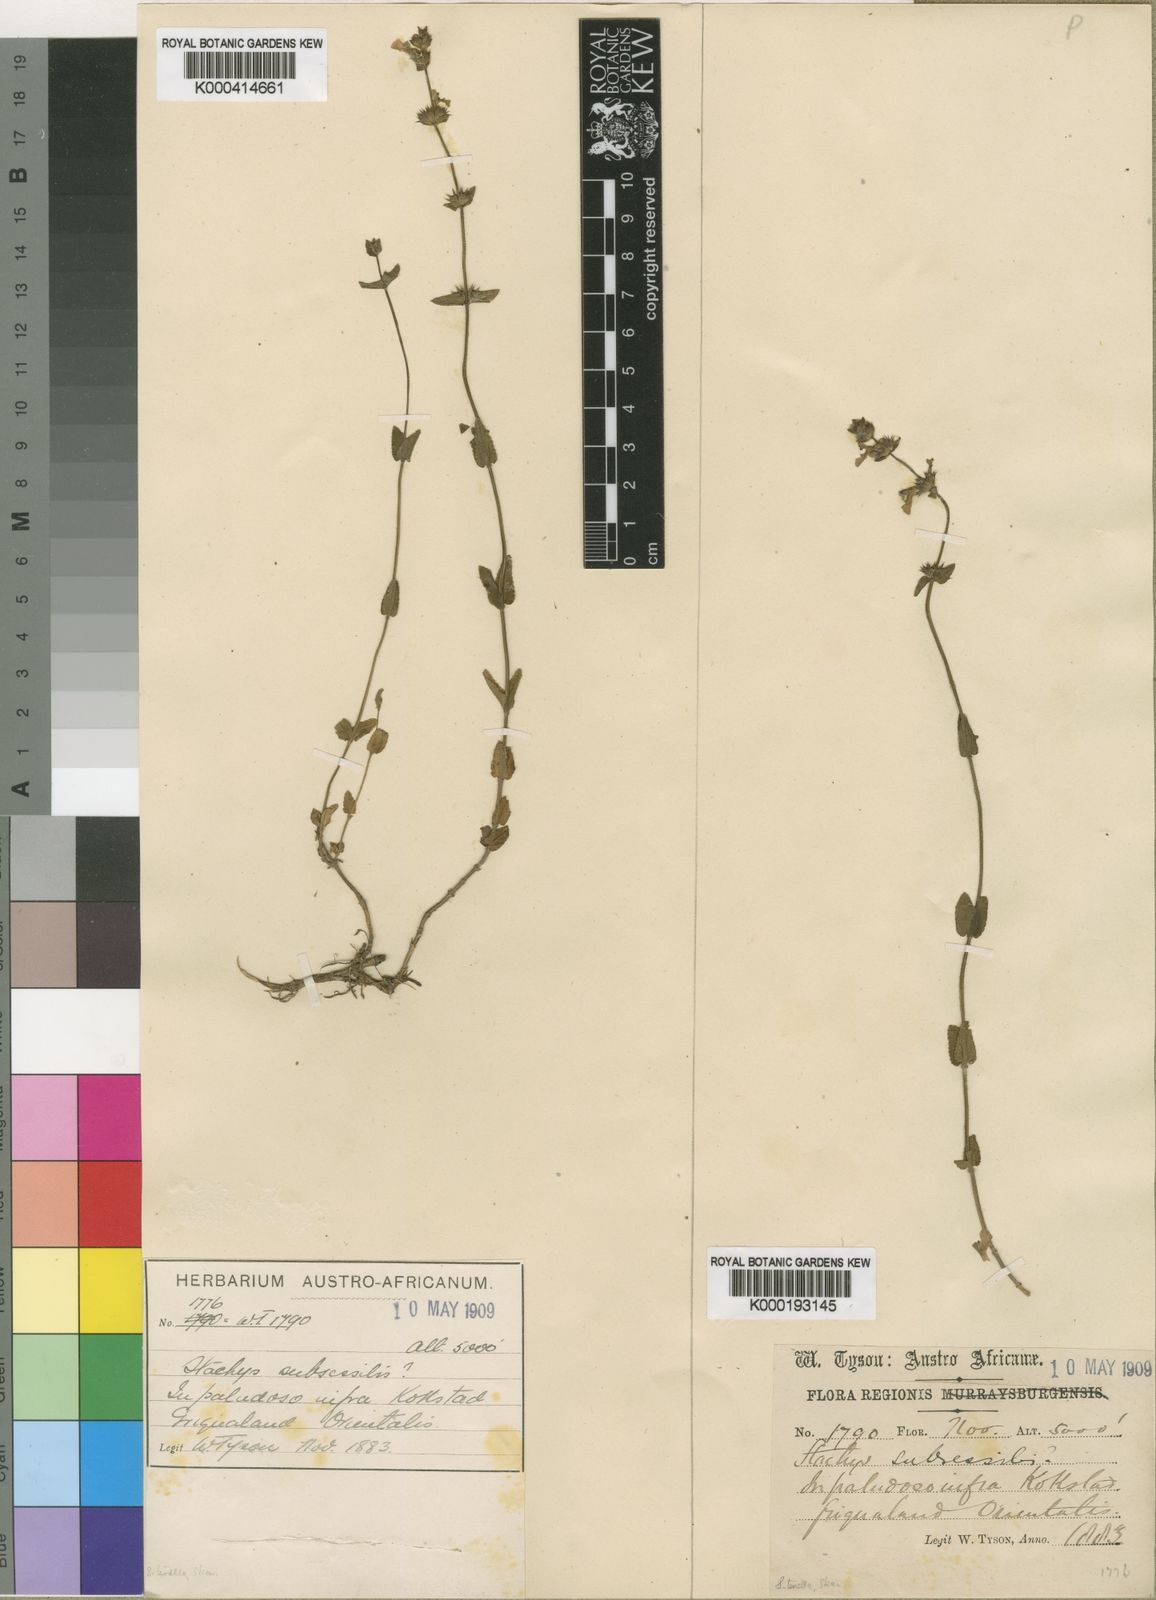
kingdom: Plantae
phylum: Tracheophyta
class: Magnoliopsida
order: Lamiales
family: Lamiaceae
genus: Stachys
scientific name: Stachys humifusa
